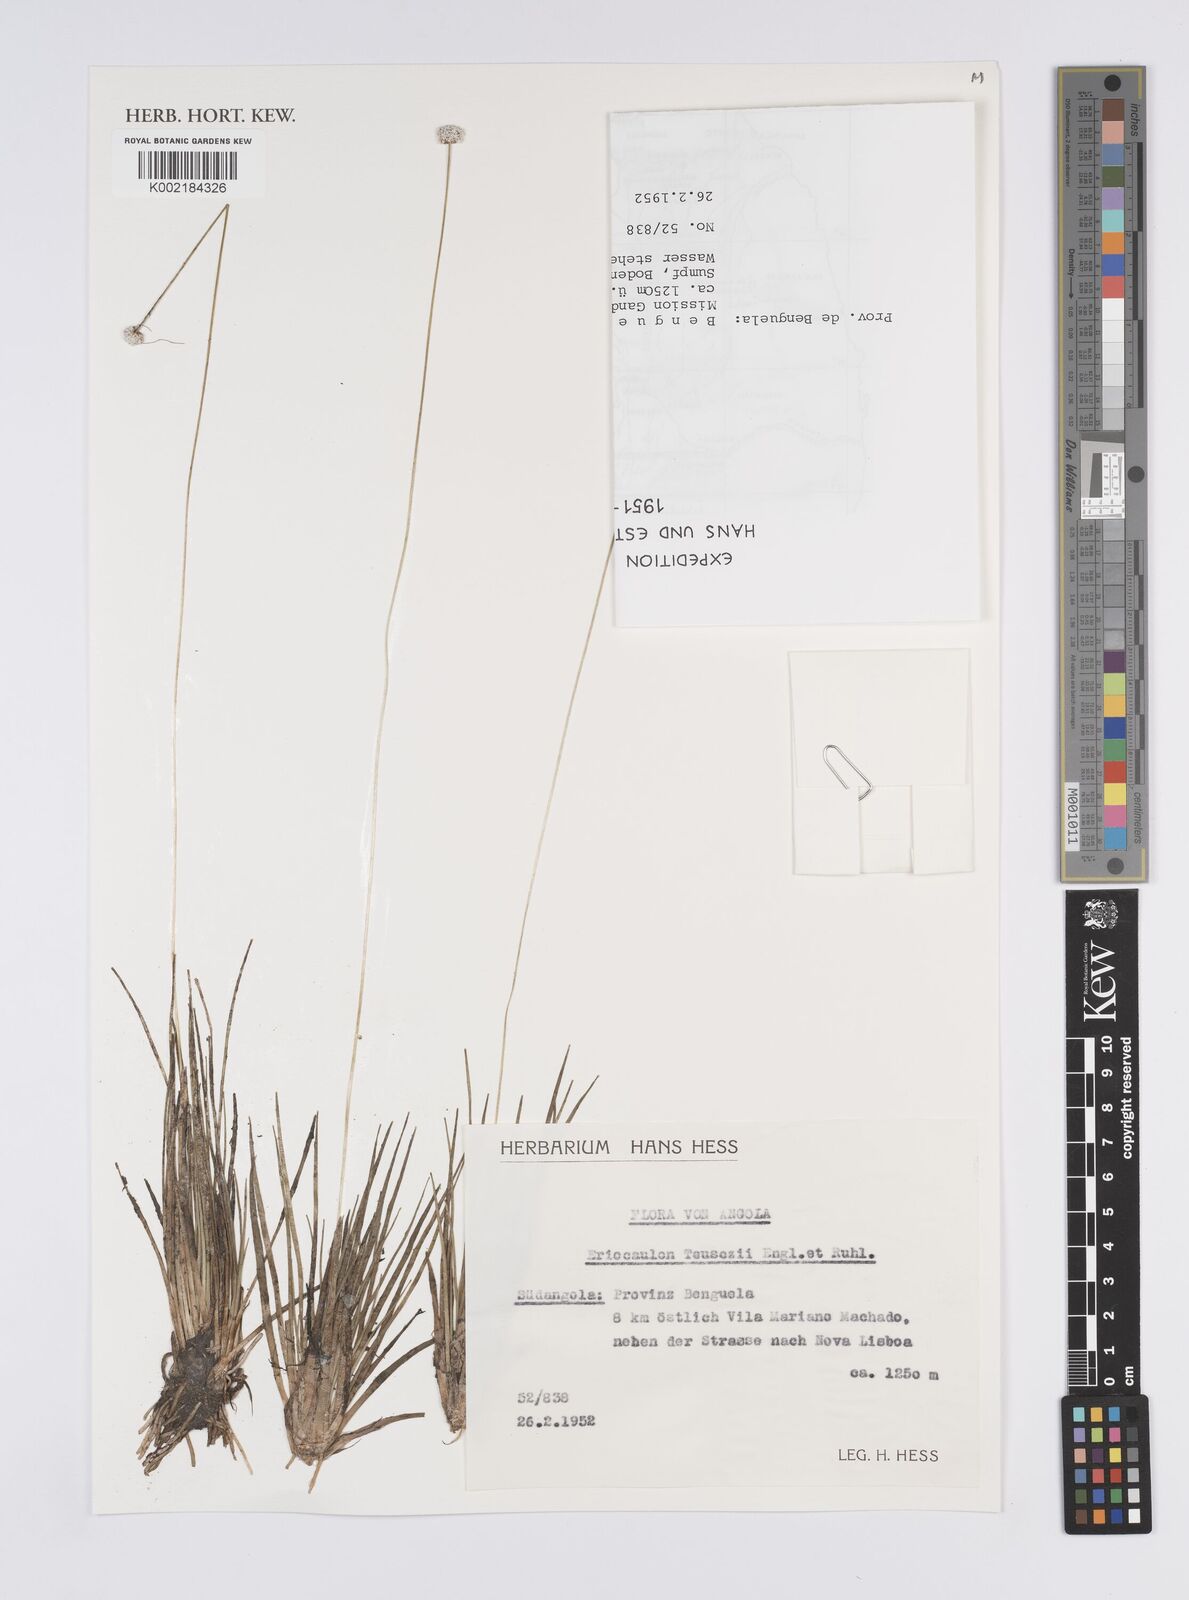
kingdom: Plantae
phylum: Tracheophyta
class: Liliopsida
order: Poales
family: Eriocaulaceae
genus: Eriocaulon
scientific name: Eriocaulon teusczii
